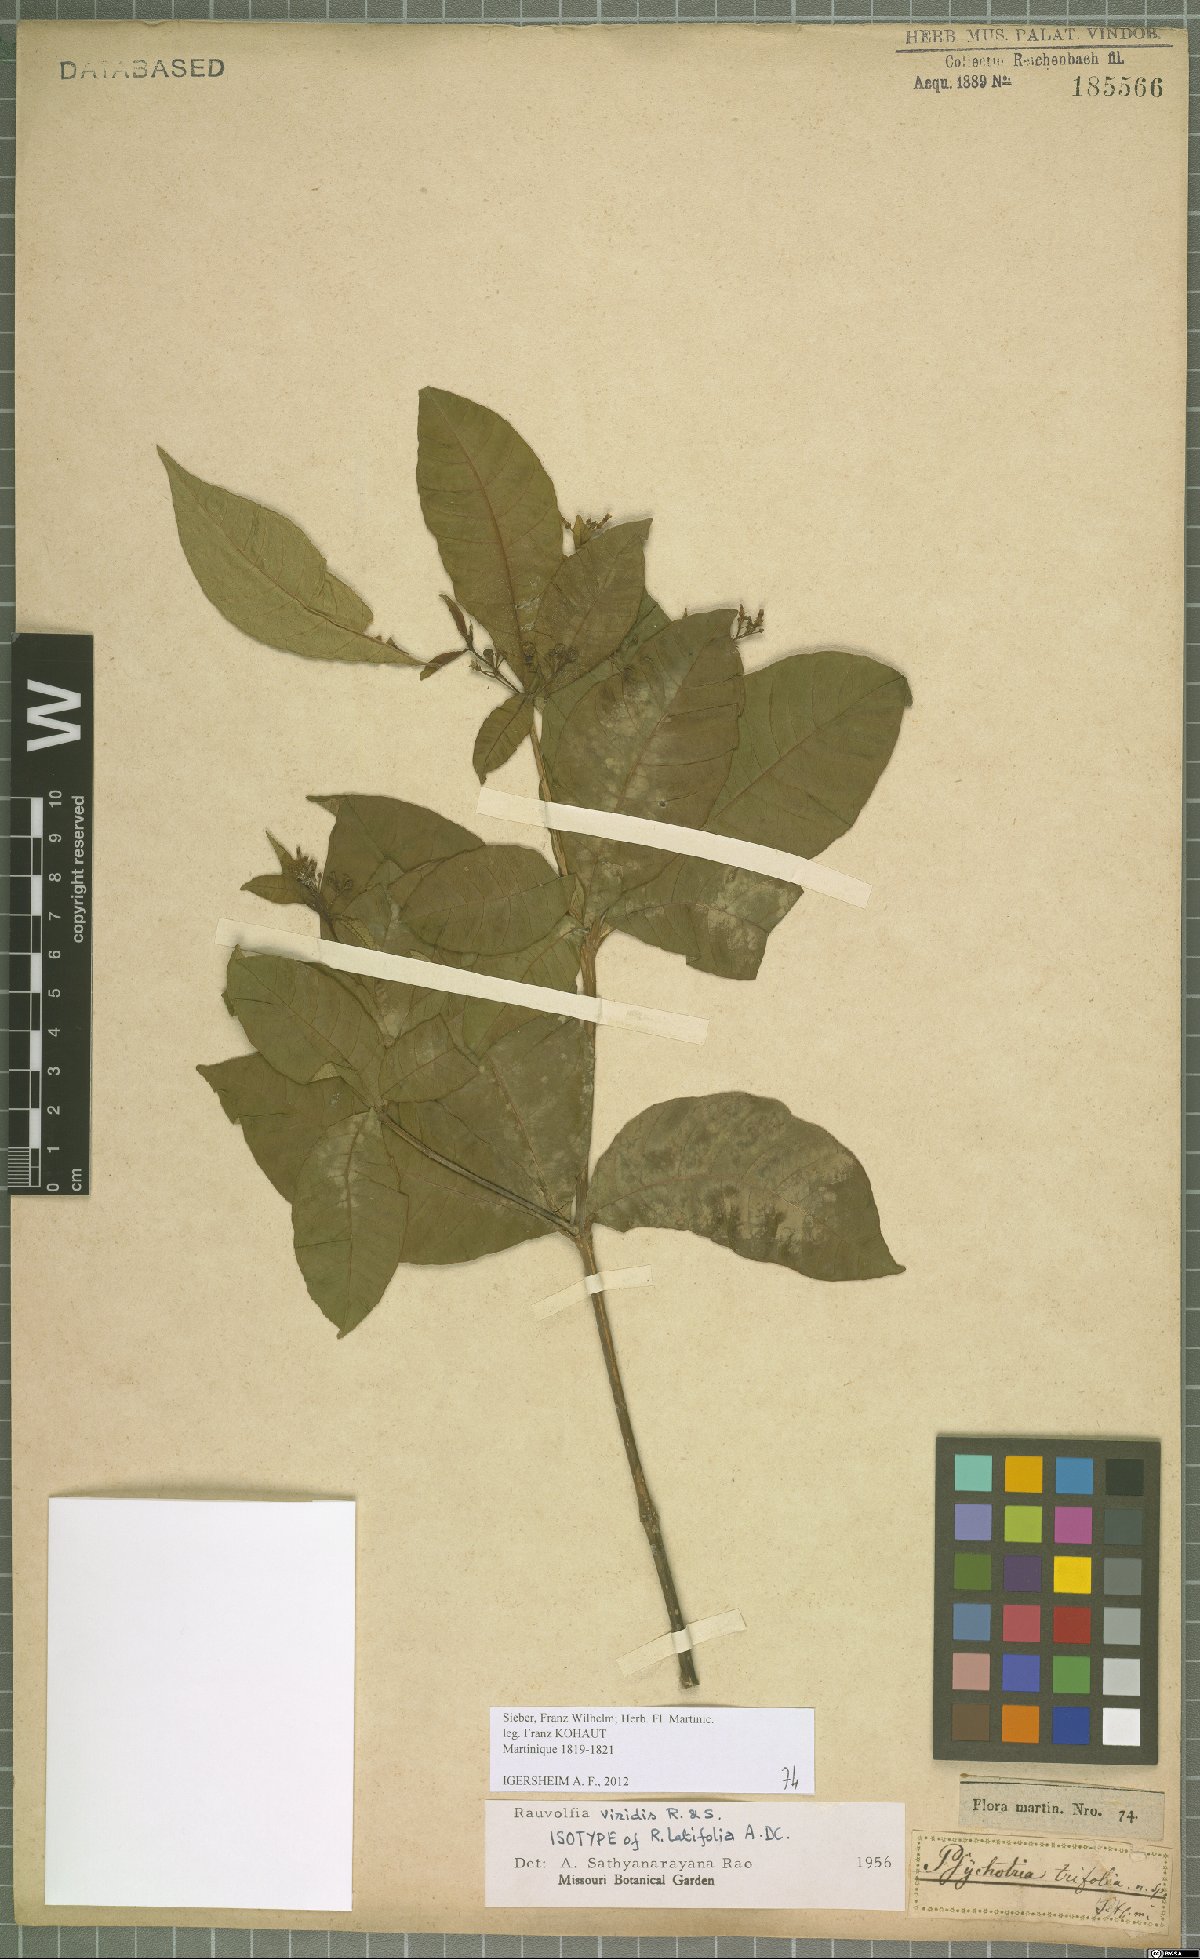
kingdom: Plantae
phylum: Tracheophyta
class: Magnoliopsida
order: Gentianales
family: Apocynaceae
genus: Rauvolfia
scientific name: Rauvolfia viridis
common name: Bellyache
